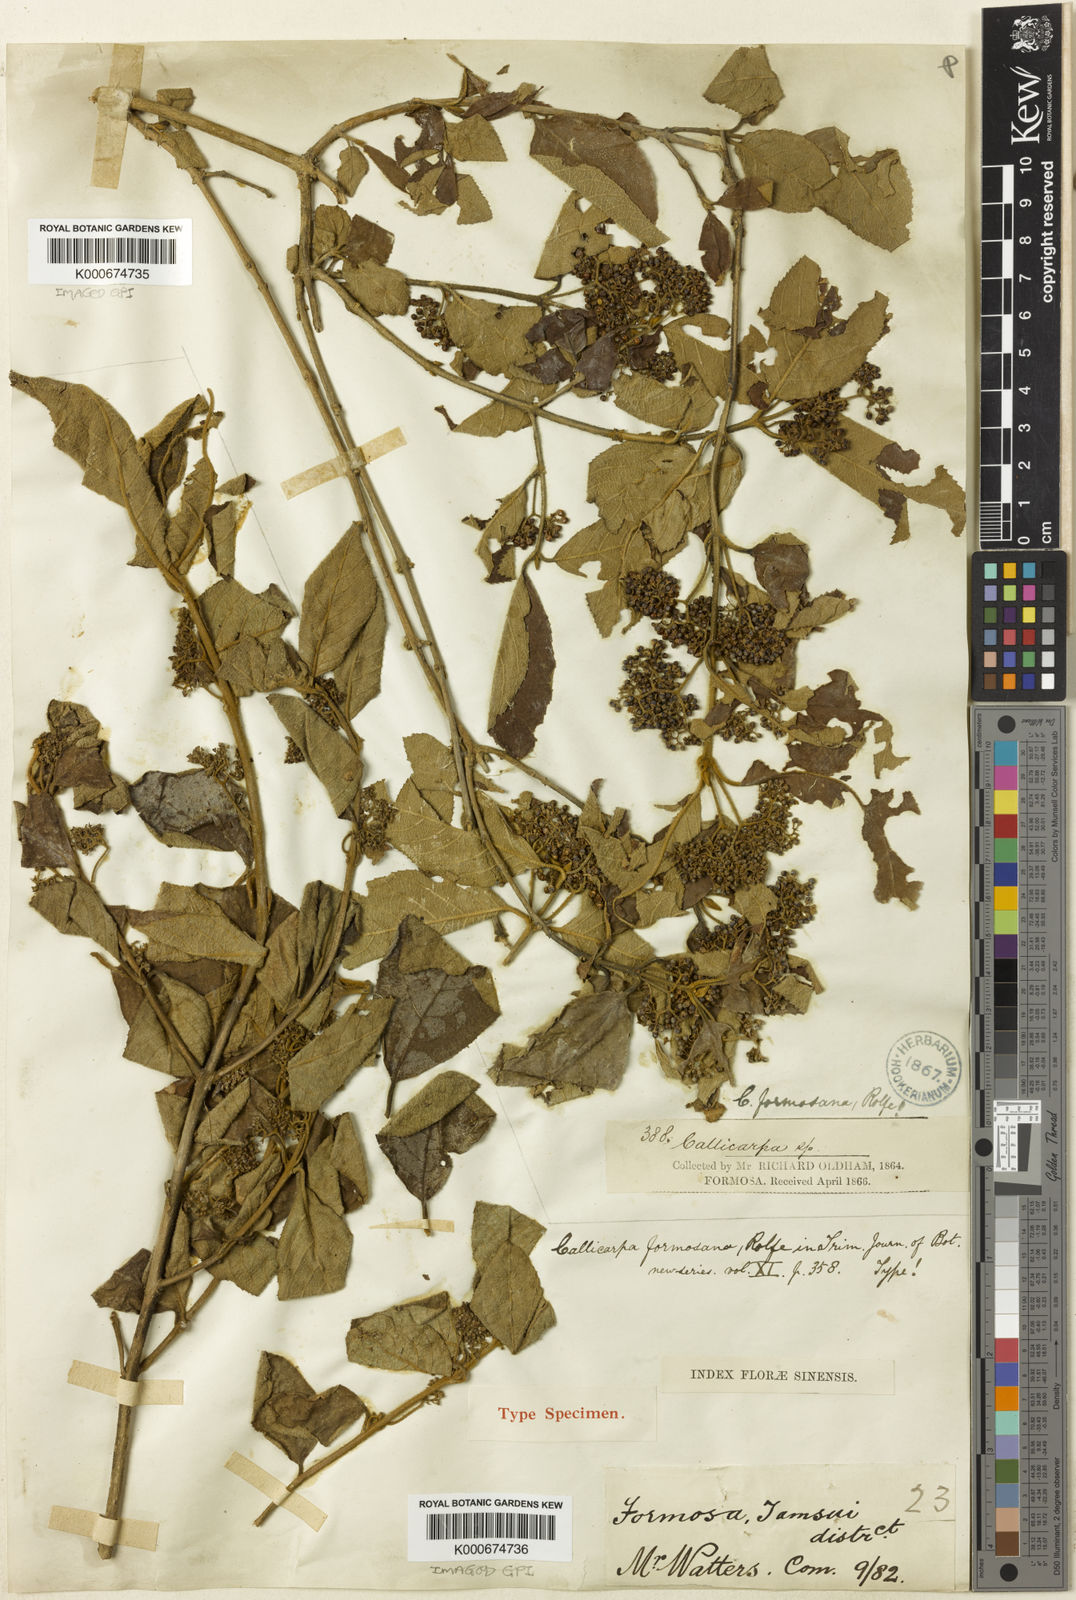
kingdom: Plantae
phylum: Tracheophyta
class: Magnoliopsida
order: Lamiales
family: Lamiaceae
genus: Callicarpa
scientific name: Callicarpa pedunculata
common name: Velvetleaf
